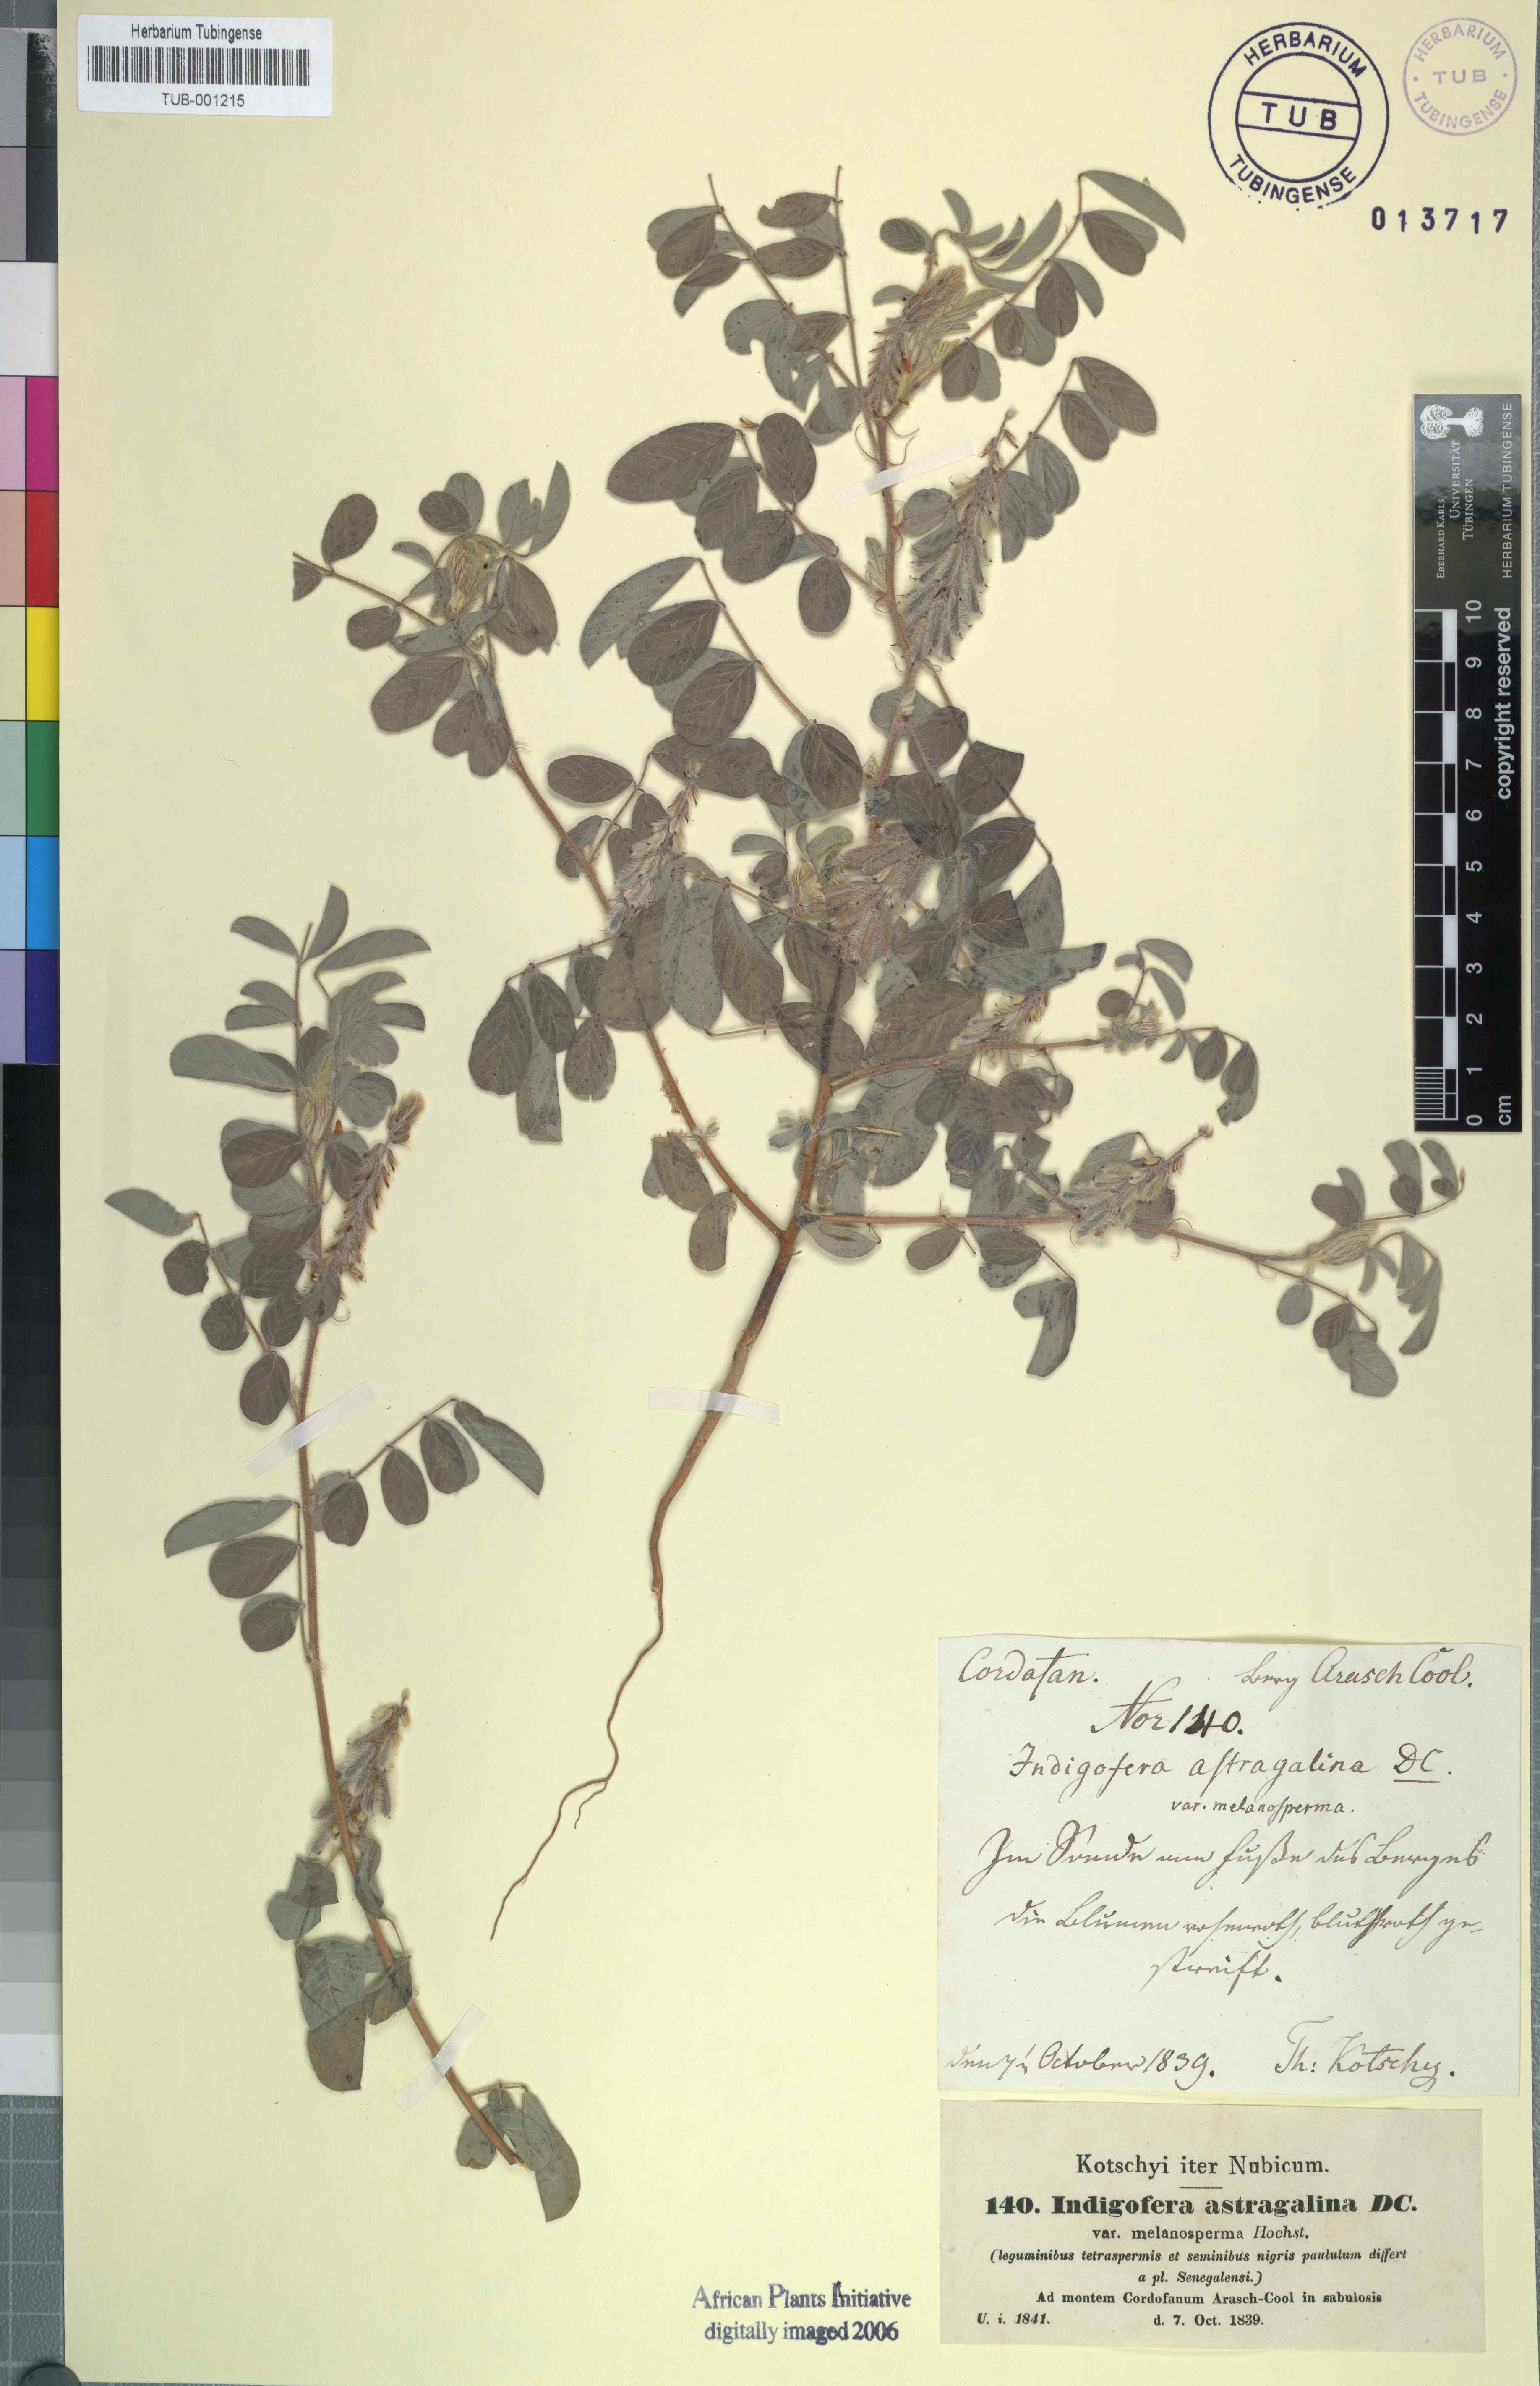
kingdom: Plantae
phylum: Tracheophyta
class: Magnoliopsida
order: Fabales
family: Fabaceae
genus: Indigofera
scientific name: Indigofera astragalina
